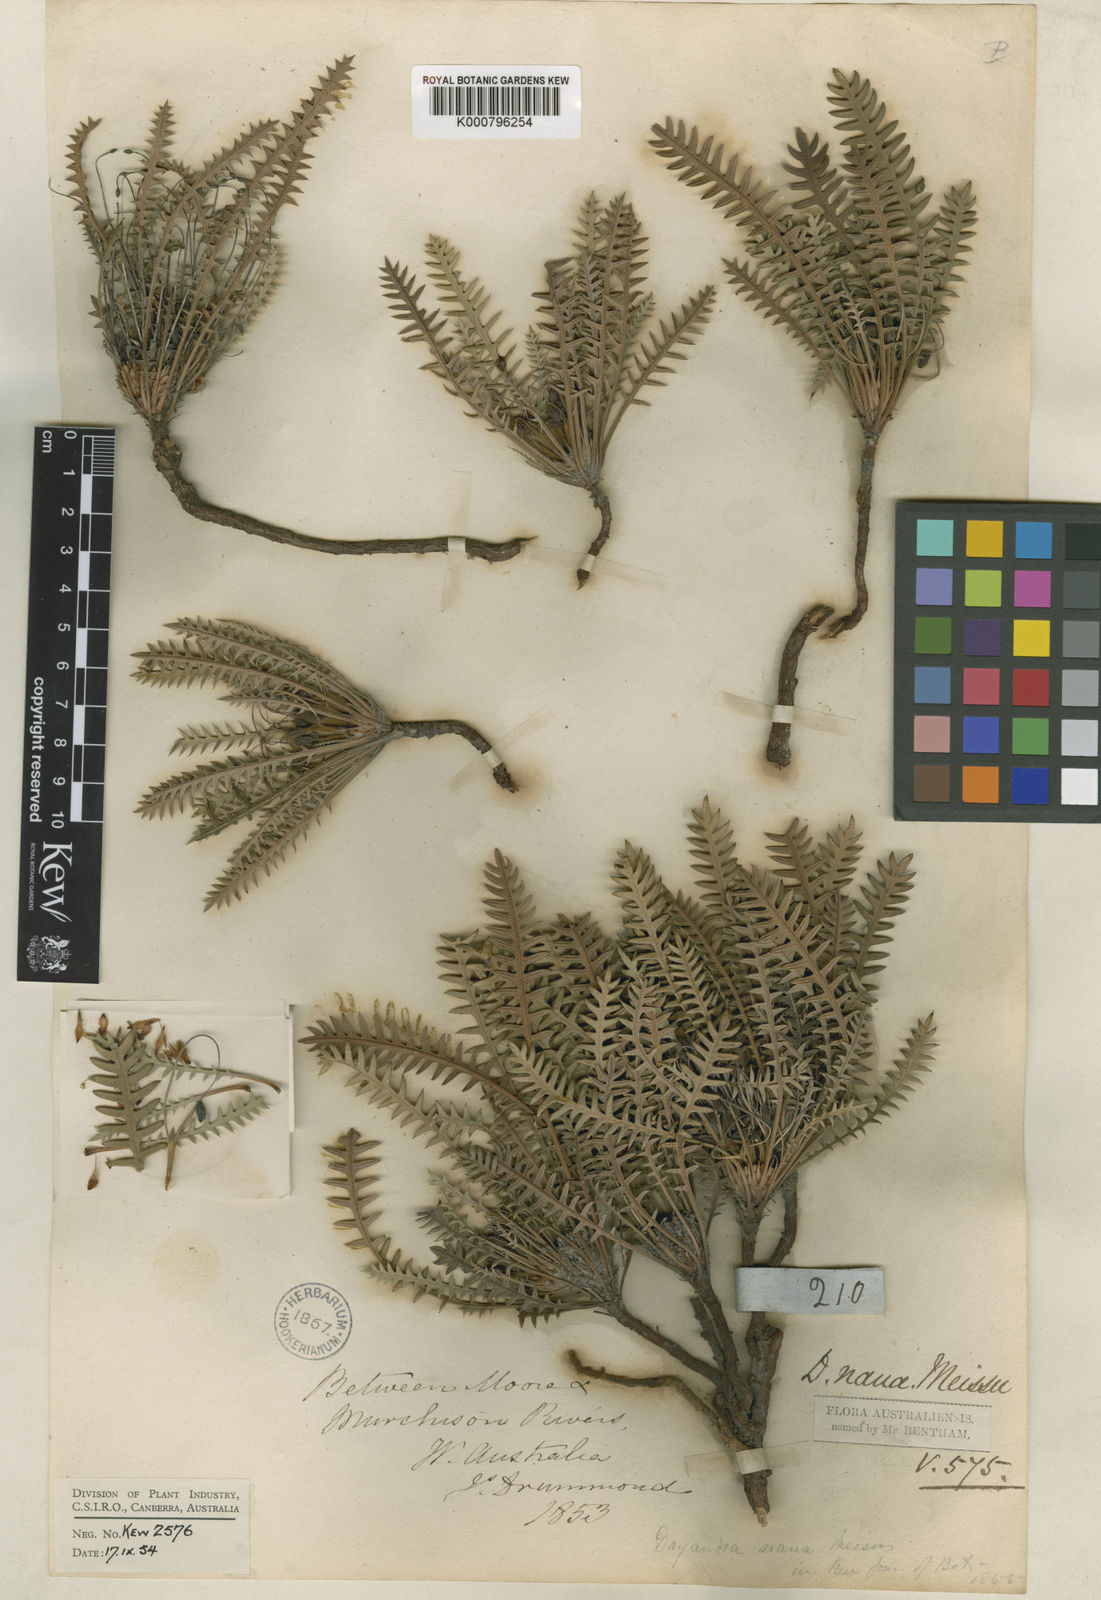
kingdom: Plantae
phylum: Tracheophyta
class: Magnoliopsida
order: Proteales
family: Proteaceae
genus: Banksia
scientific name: Banksia nana
